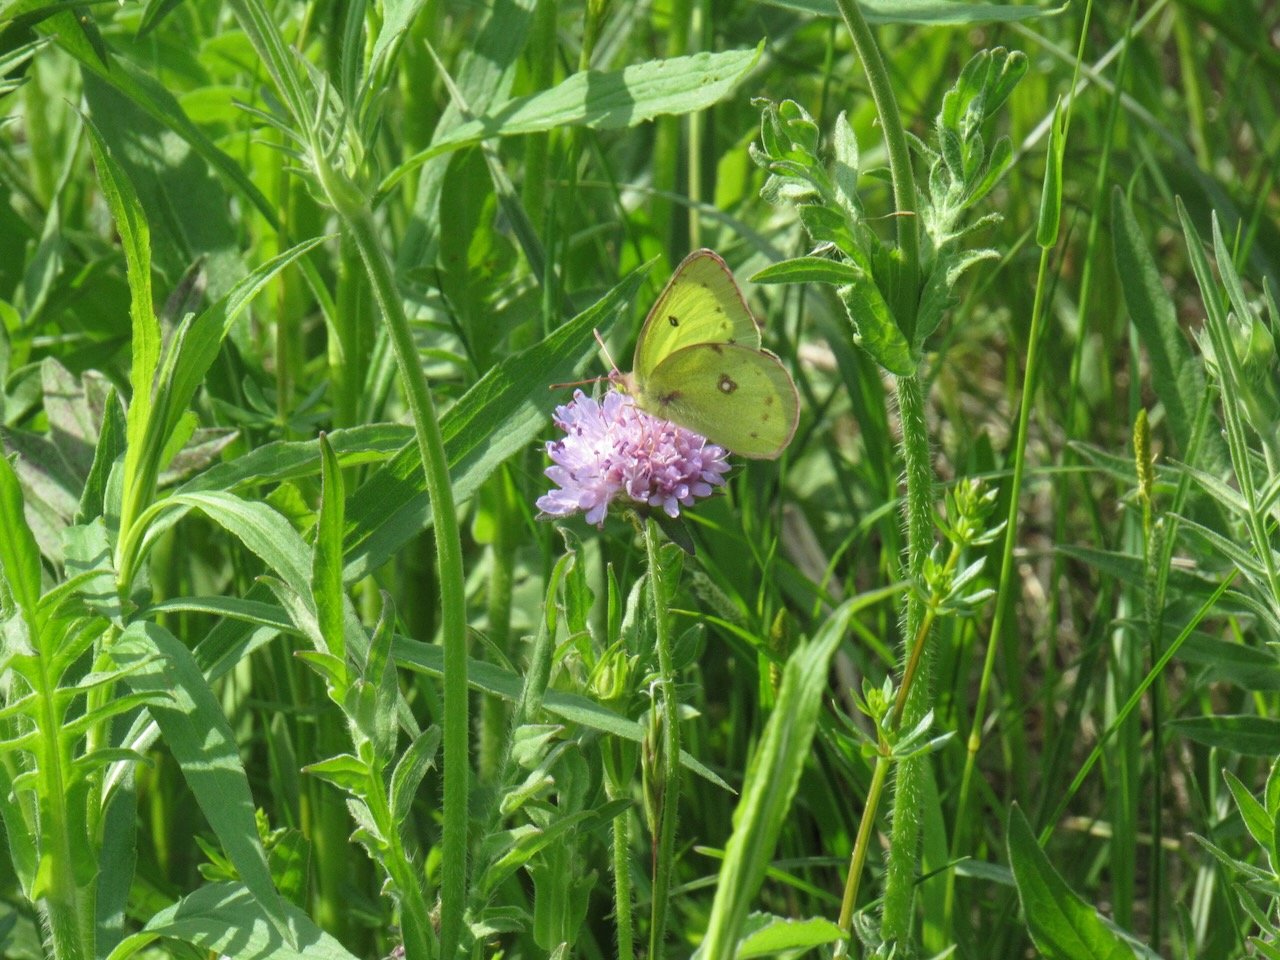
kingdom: Animalia
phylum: Arthropoda
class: Insecta
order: Lepidoptera
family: Pieridae
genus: Colias
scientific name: Colias philodice
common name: Clouded Sulphur
